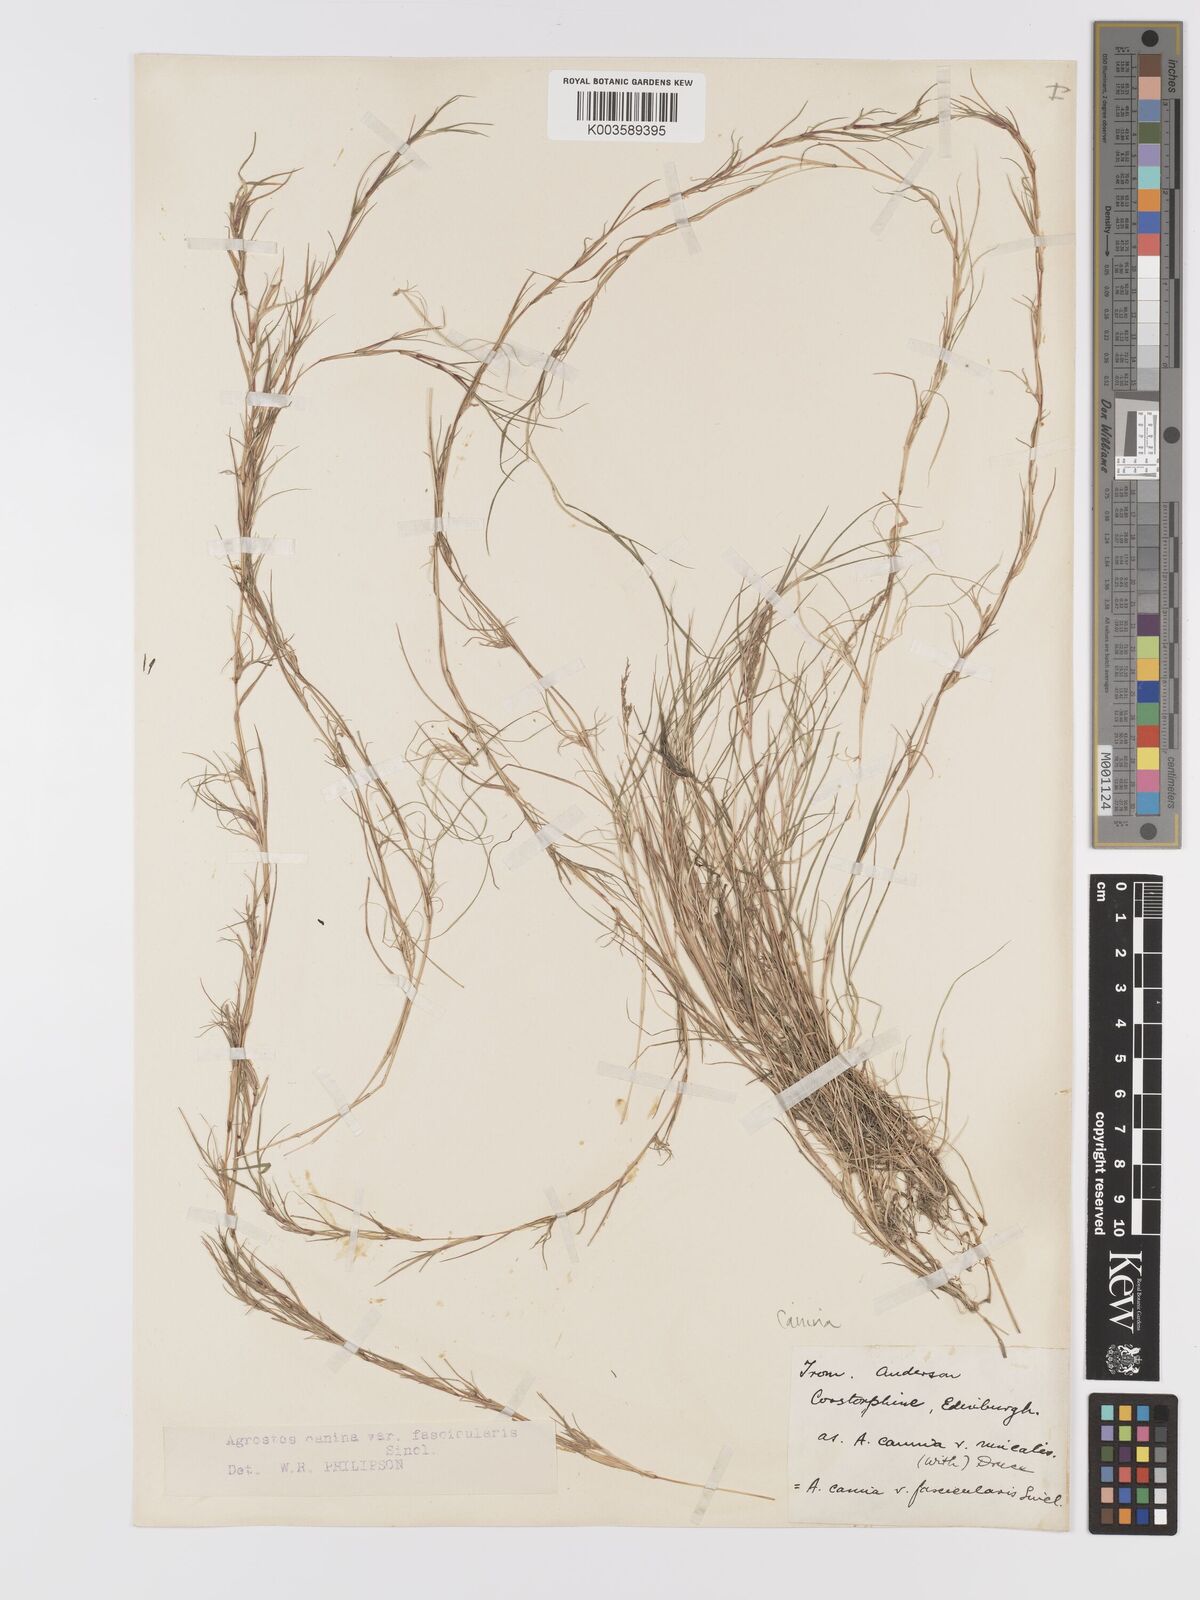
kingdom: Plantae
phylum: Tracheophyta
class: Liliopsida
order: Poales
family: Poaceae
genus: Agrostis
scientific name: Agrostis canina
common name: Velvet bent
